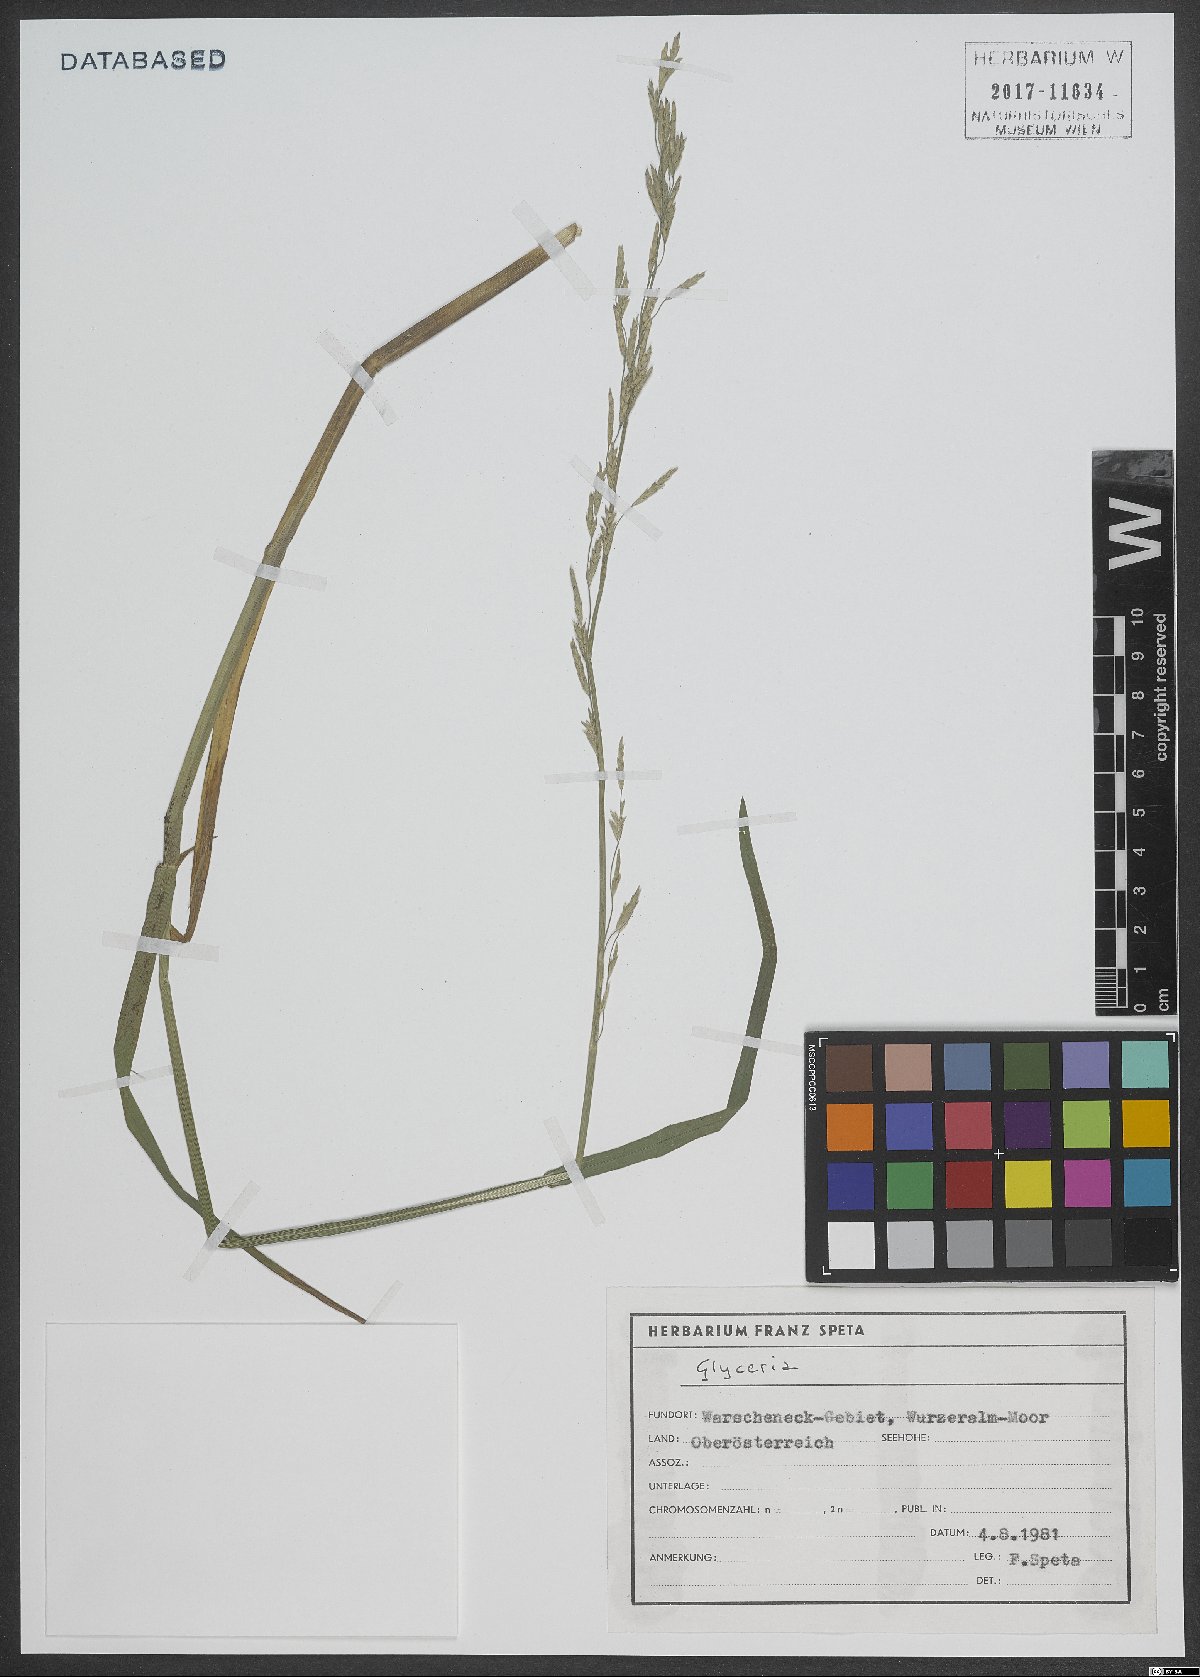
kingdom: Plantae
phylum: Tracheophyta
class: Liliopsida
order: Poales
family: Poaceae
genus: Glyceria
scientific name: Glyceria
